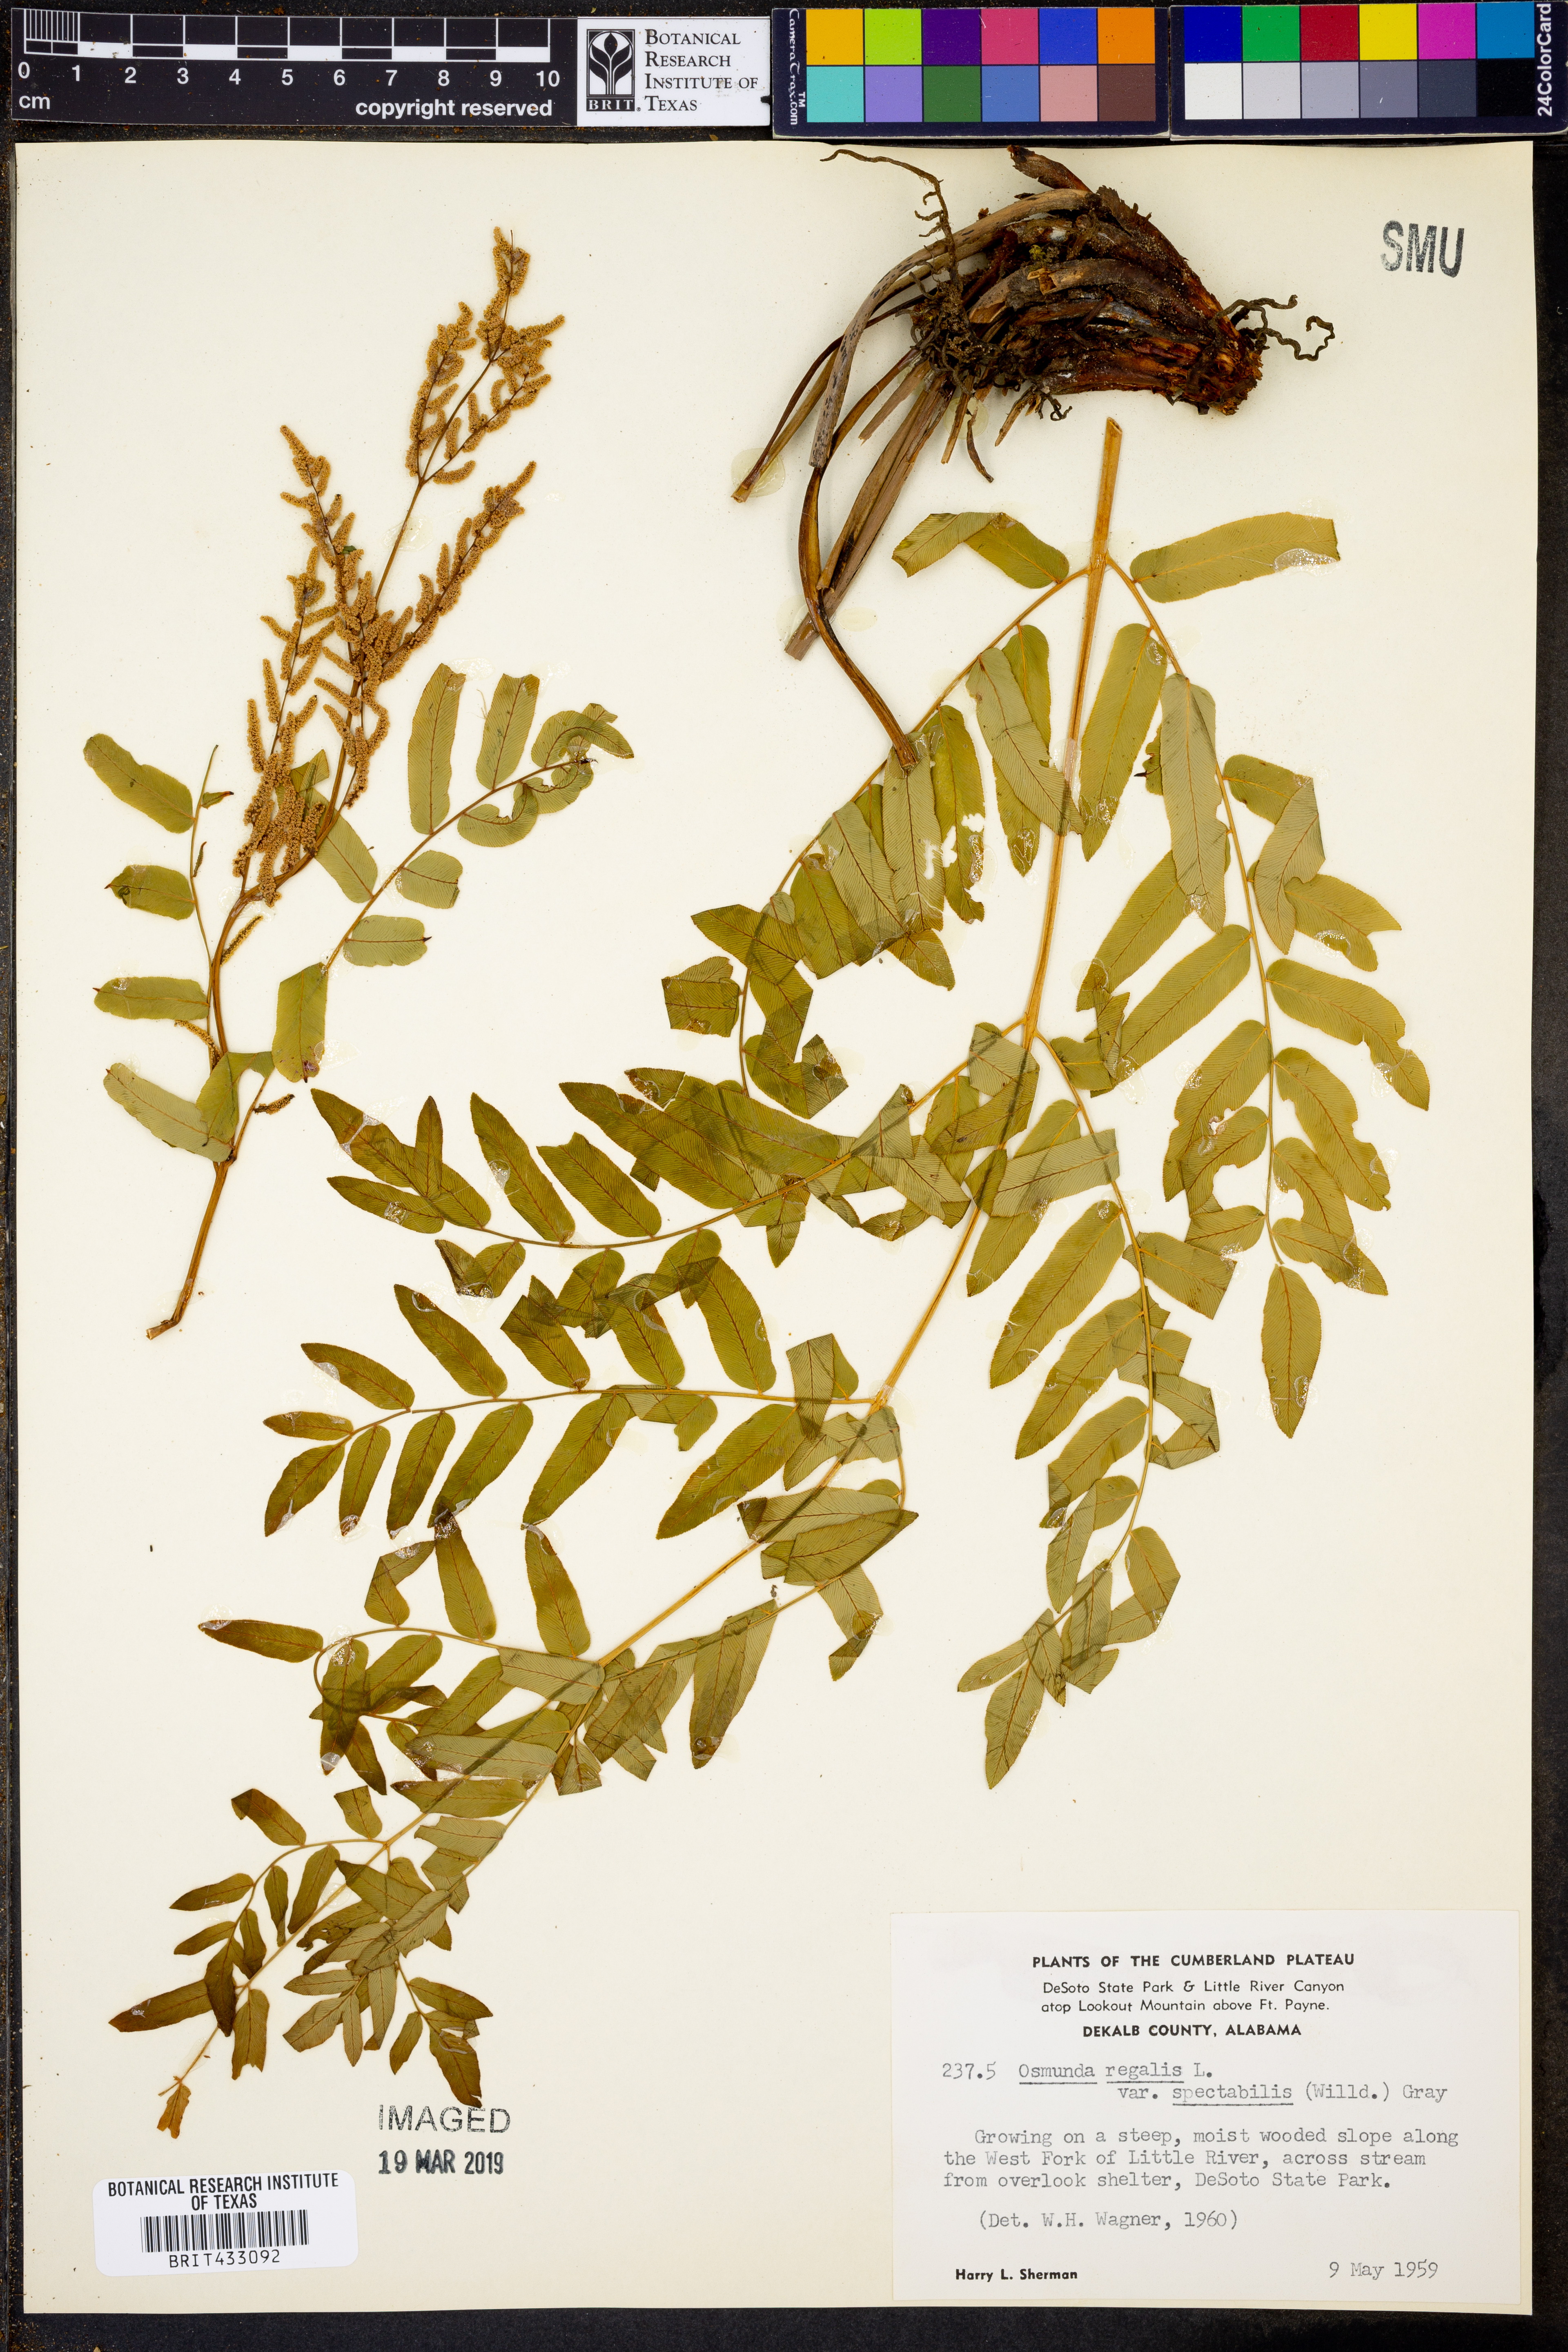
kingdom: Plantae
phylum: Tracheophyta
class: Polypodiopsida
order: Osmundales
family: Osmundaceae
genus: Osmunda
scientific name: Osmunda spectabilis
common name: American royal fern
